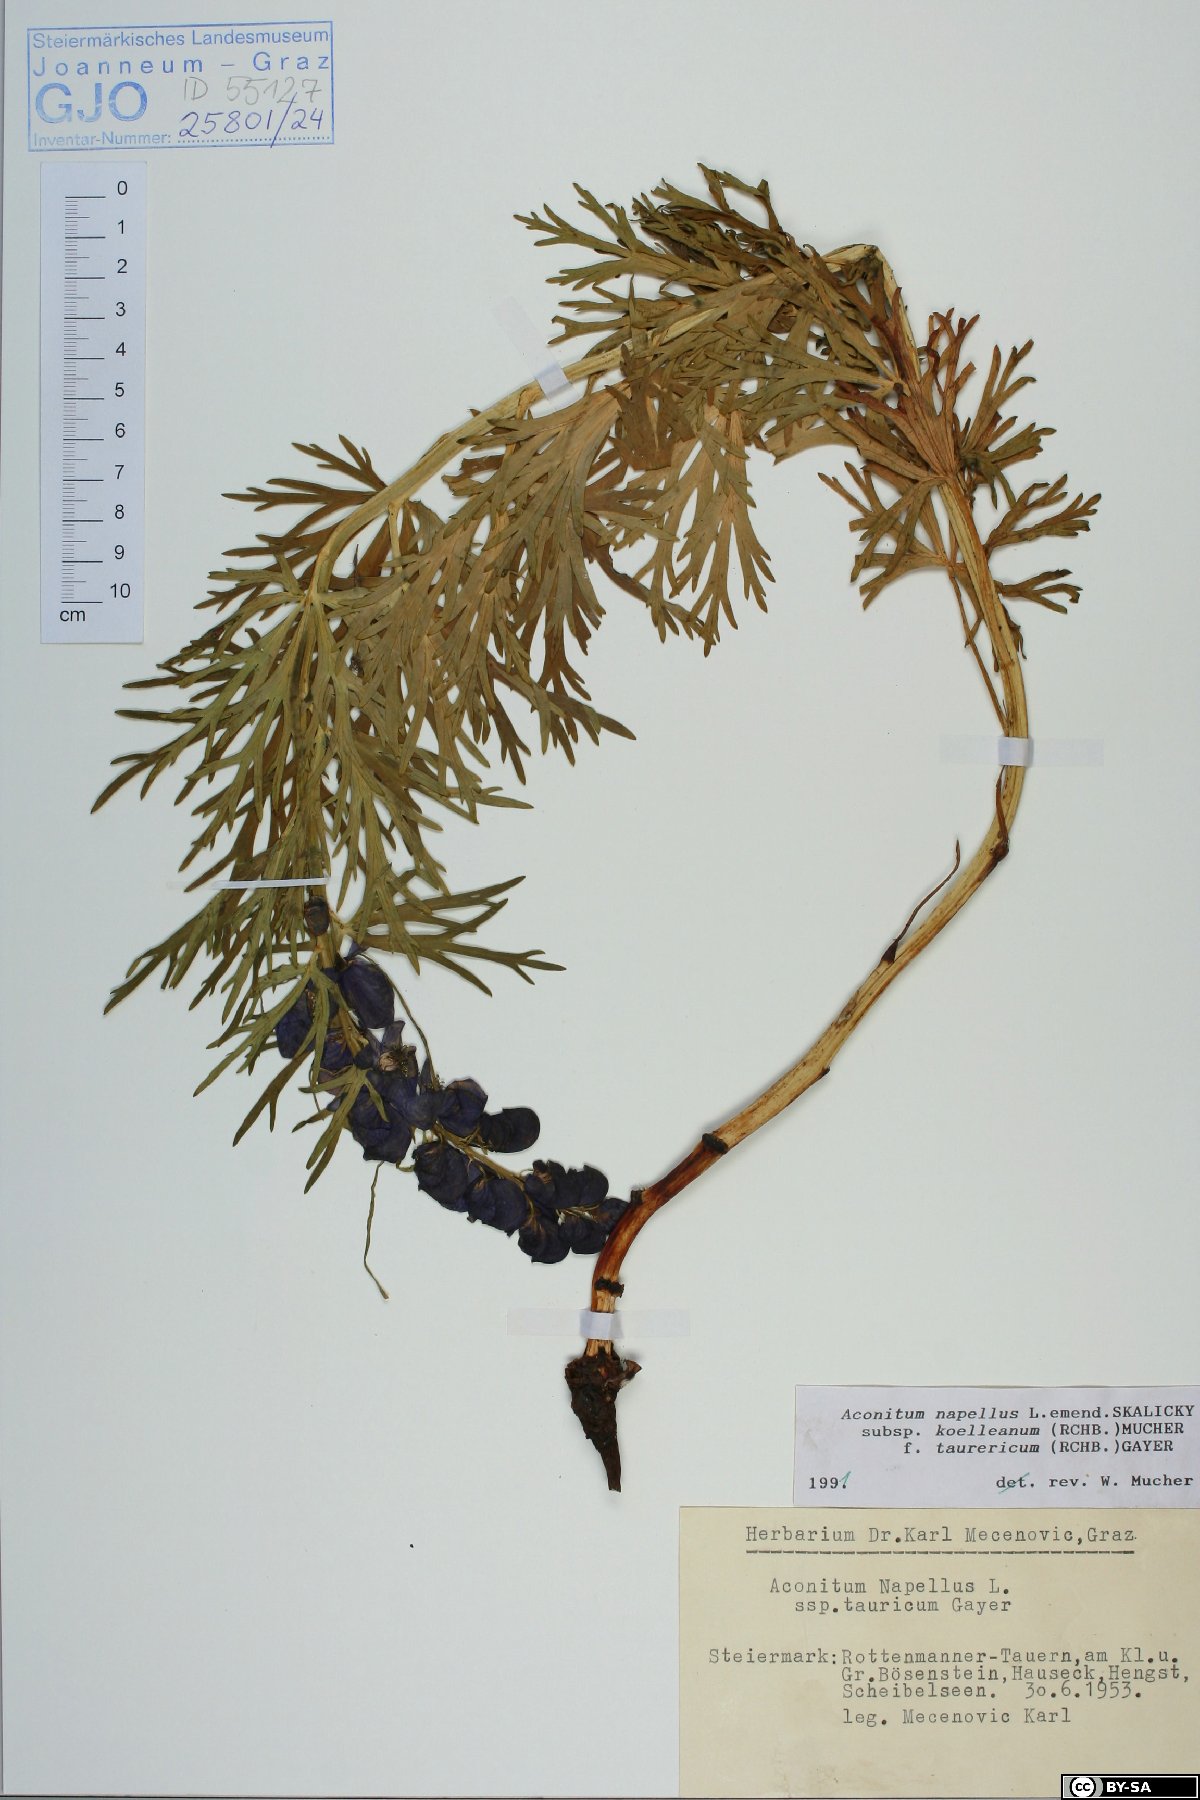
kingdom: Plantae
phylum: Tracheophyta
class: Magnoliopsida
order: Ranunculales
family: Ranunculaceae
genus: Aconitum
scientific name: Aconitum tauricum
